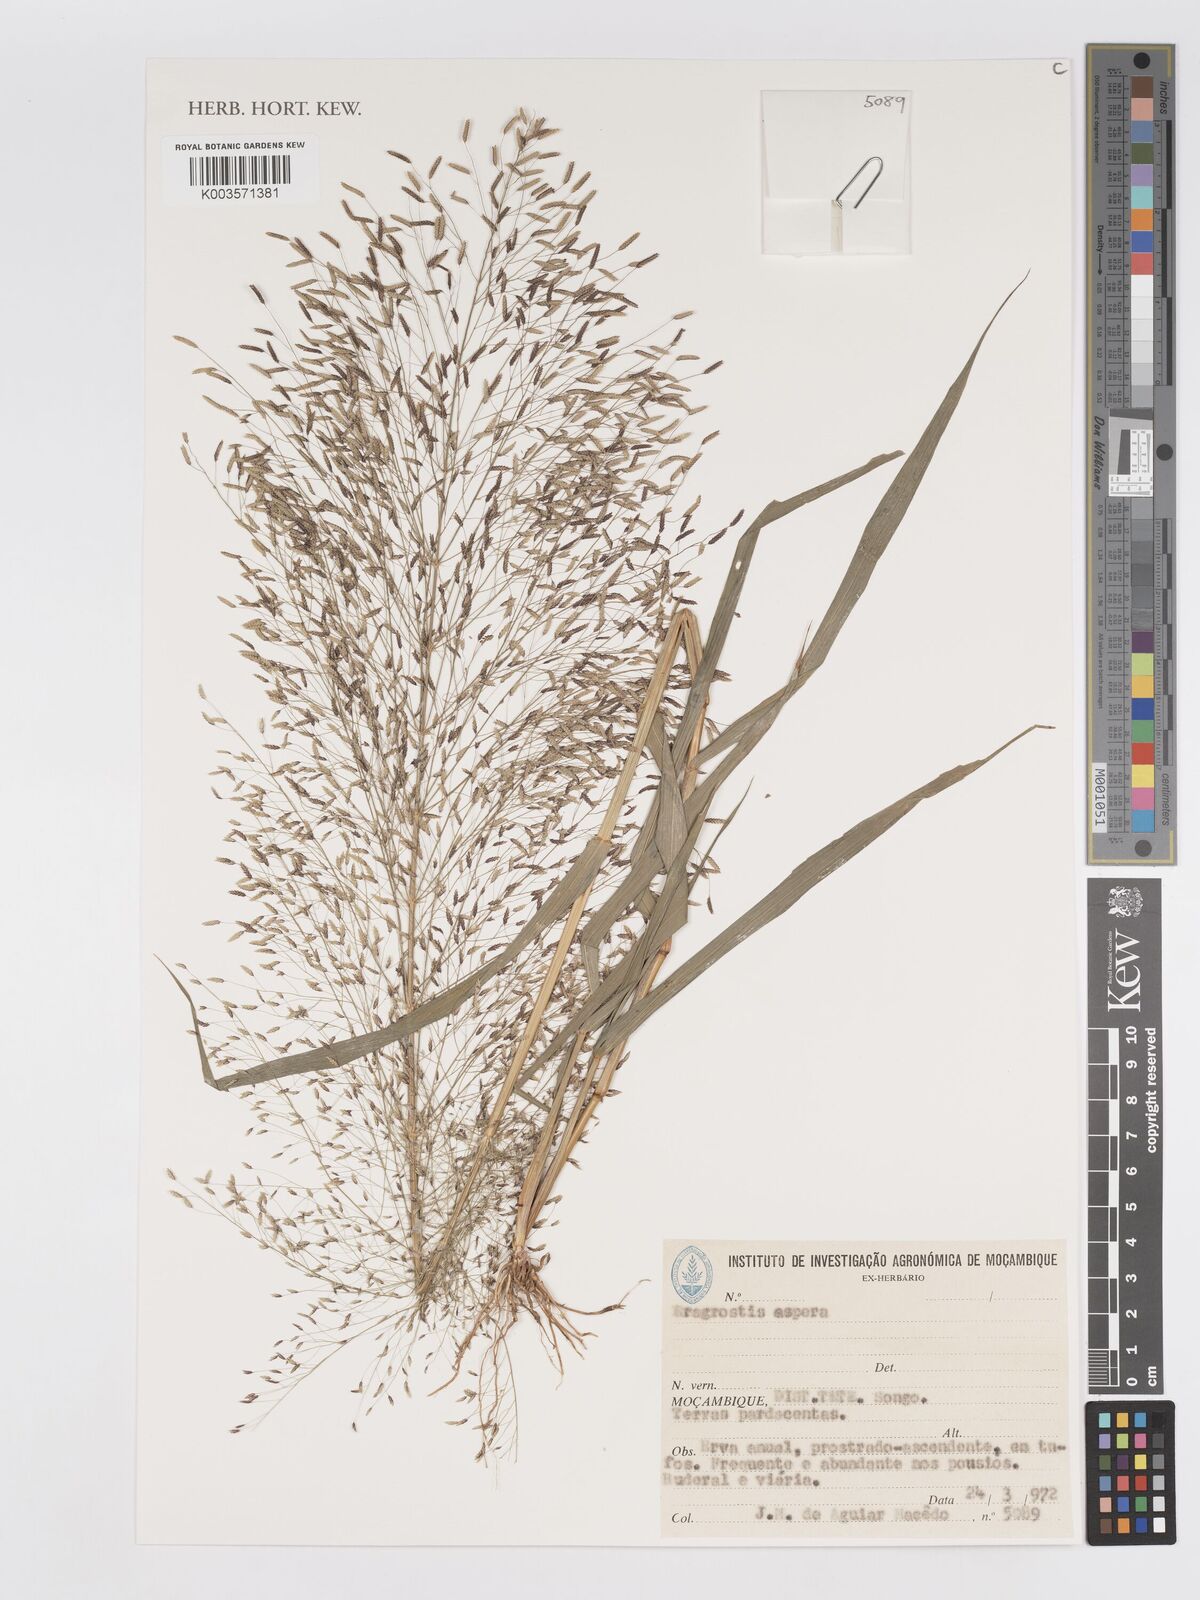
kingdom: Plantae
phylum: Tracheophyta
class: Liliopsida
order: Poales
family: Poaceae
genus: Eragrostis
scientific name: Eragrostis aspera
